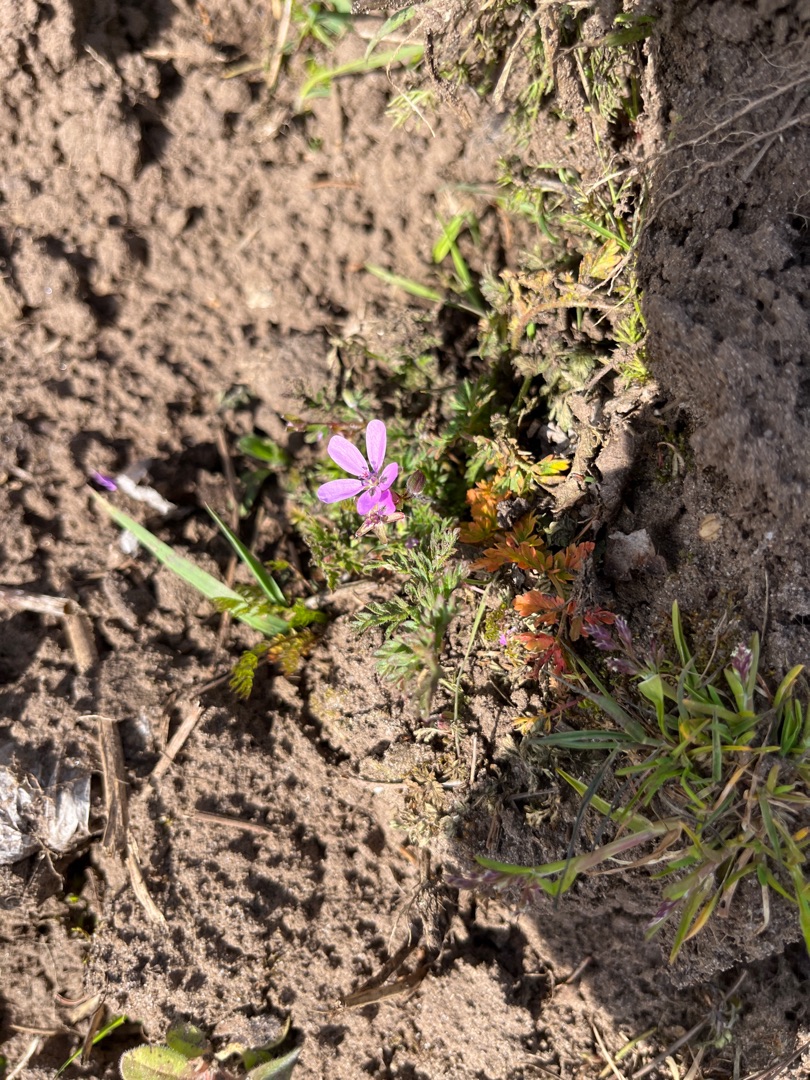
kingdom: Plantae
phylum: Tracheophyta
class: Magnoliopsida
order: Geraniales
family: Geraniaceae
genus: Erodium
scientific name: Erodium cicutarium
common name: Hejrenæb
